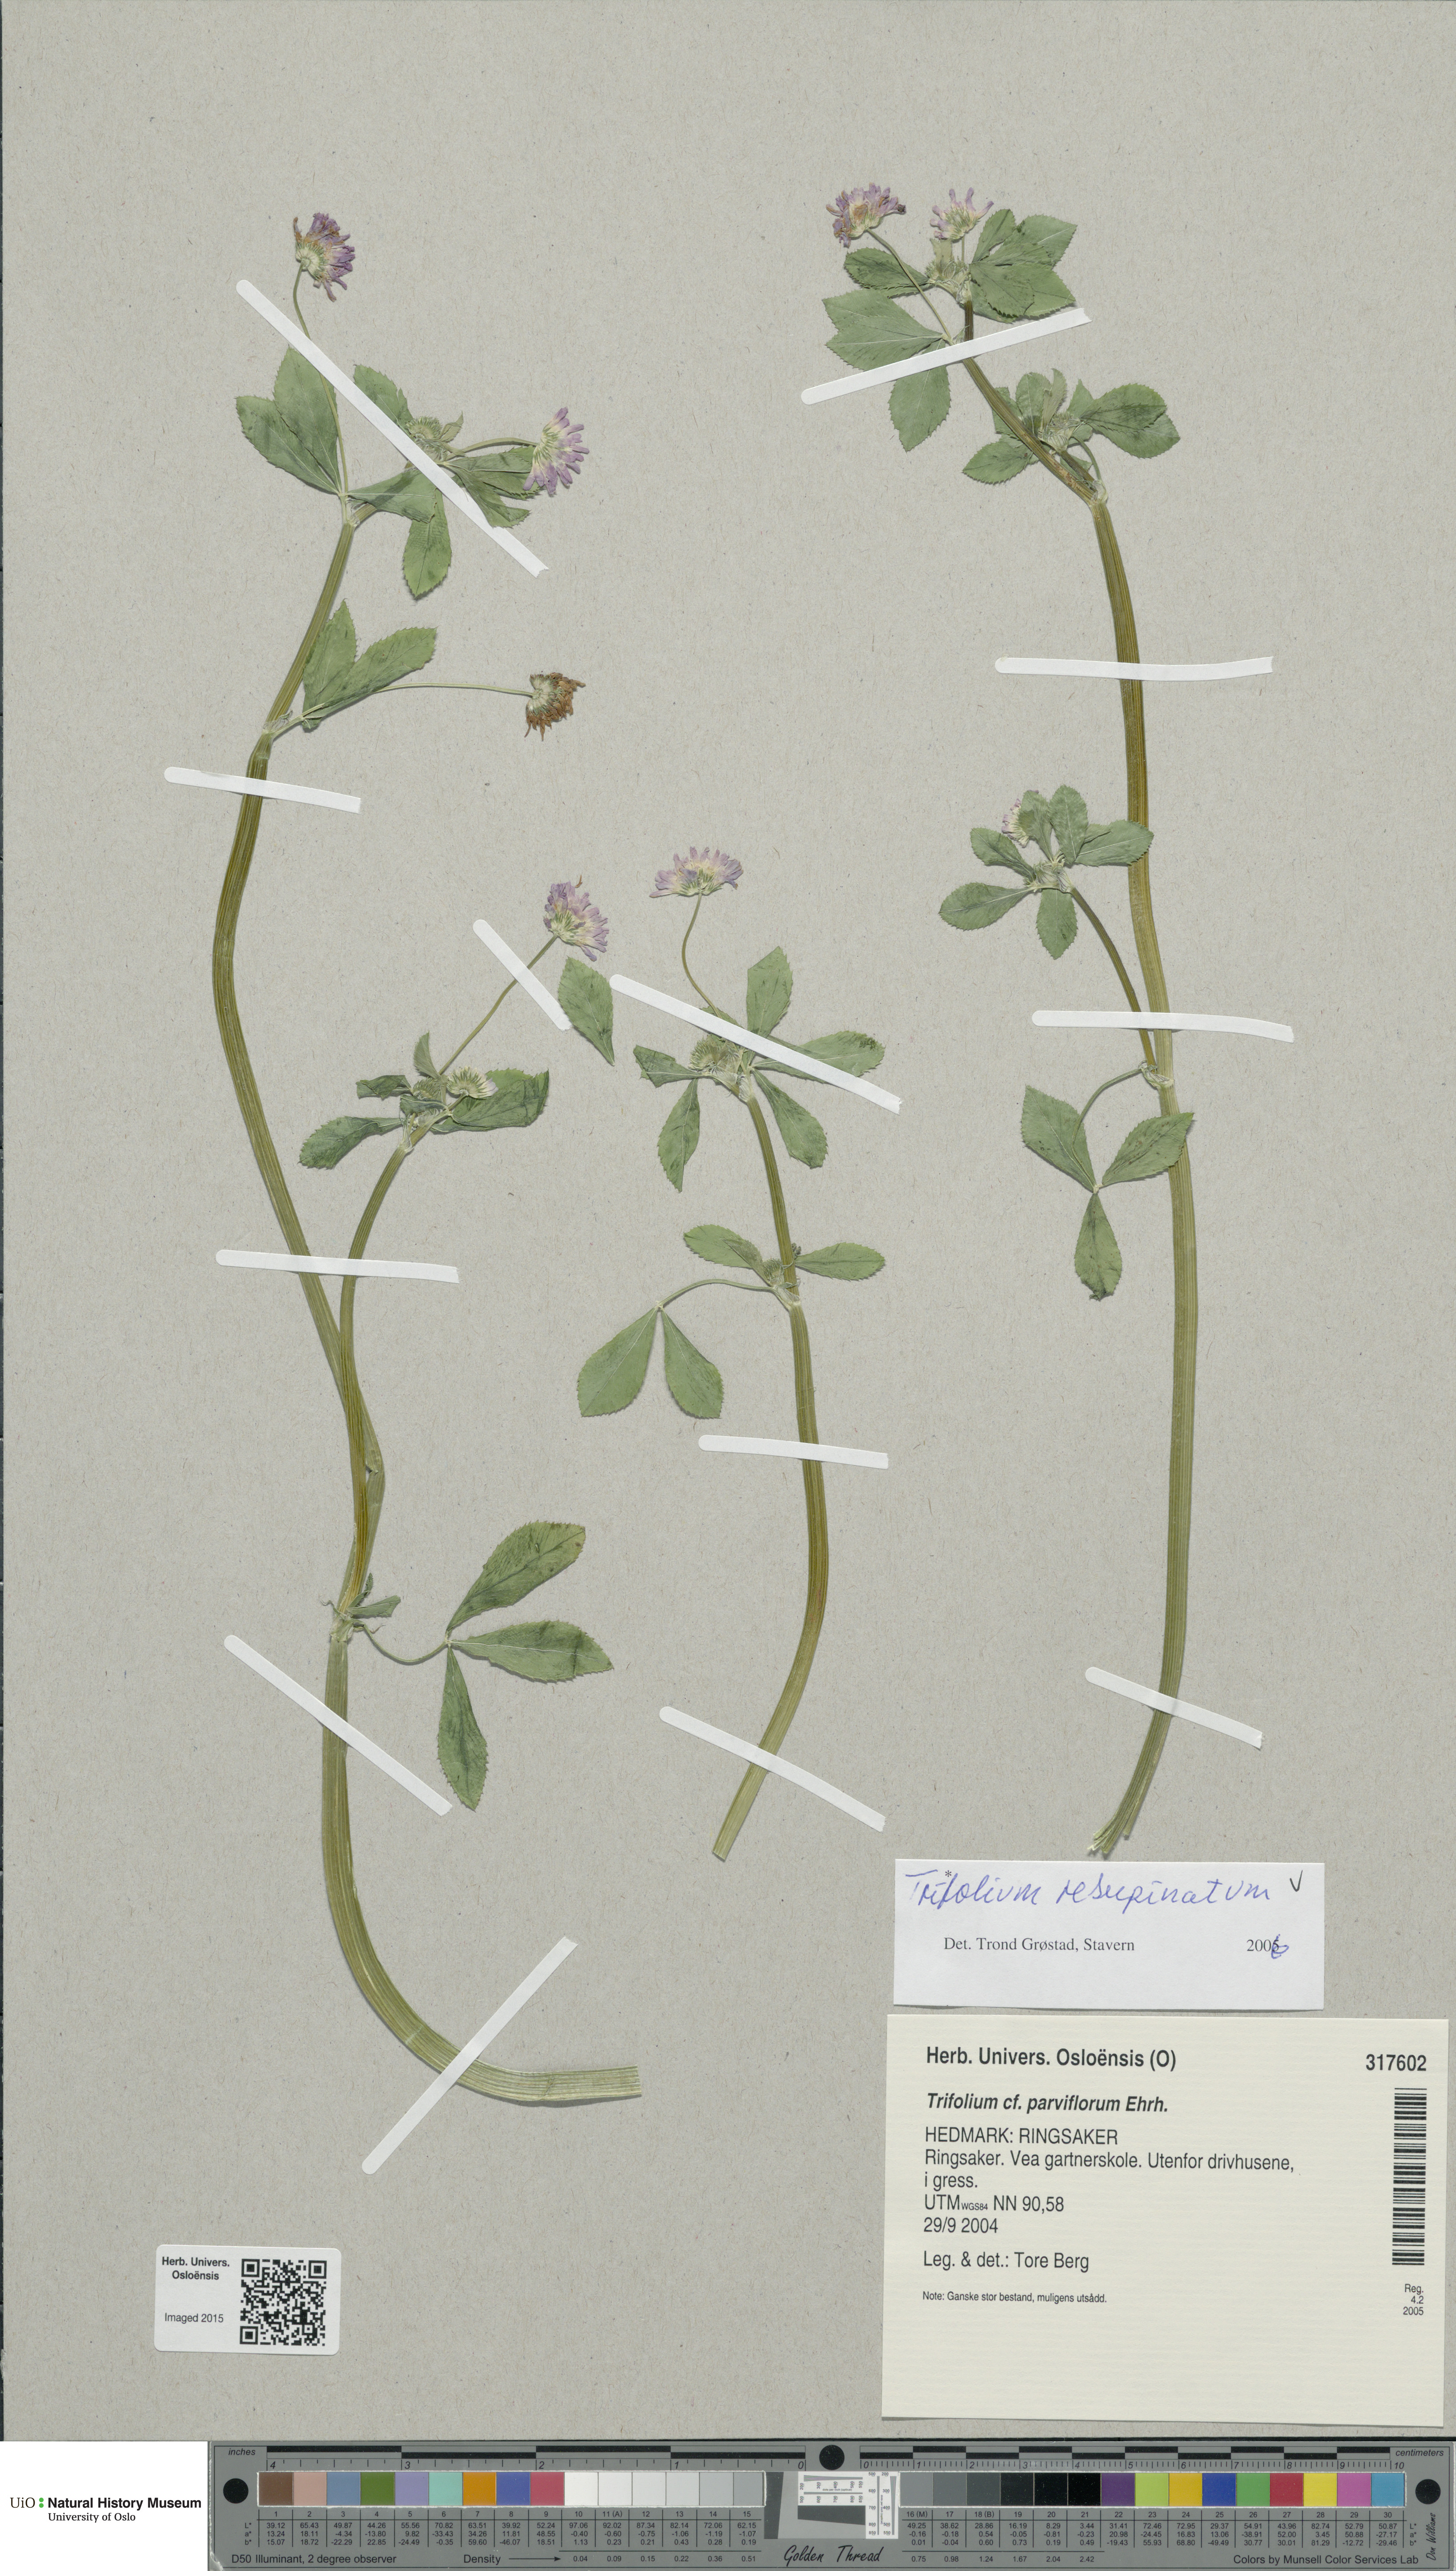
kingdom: Plantae
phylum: Tracheophyta
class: Magnoliopsida
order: Fabales
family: Fabaceae
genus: Trifolium
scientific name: Trifolium resupinatum
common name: Reversed clover
